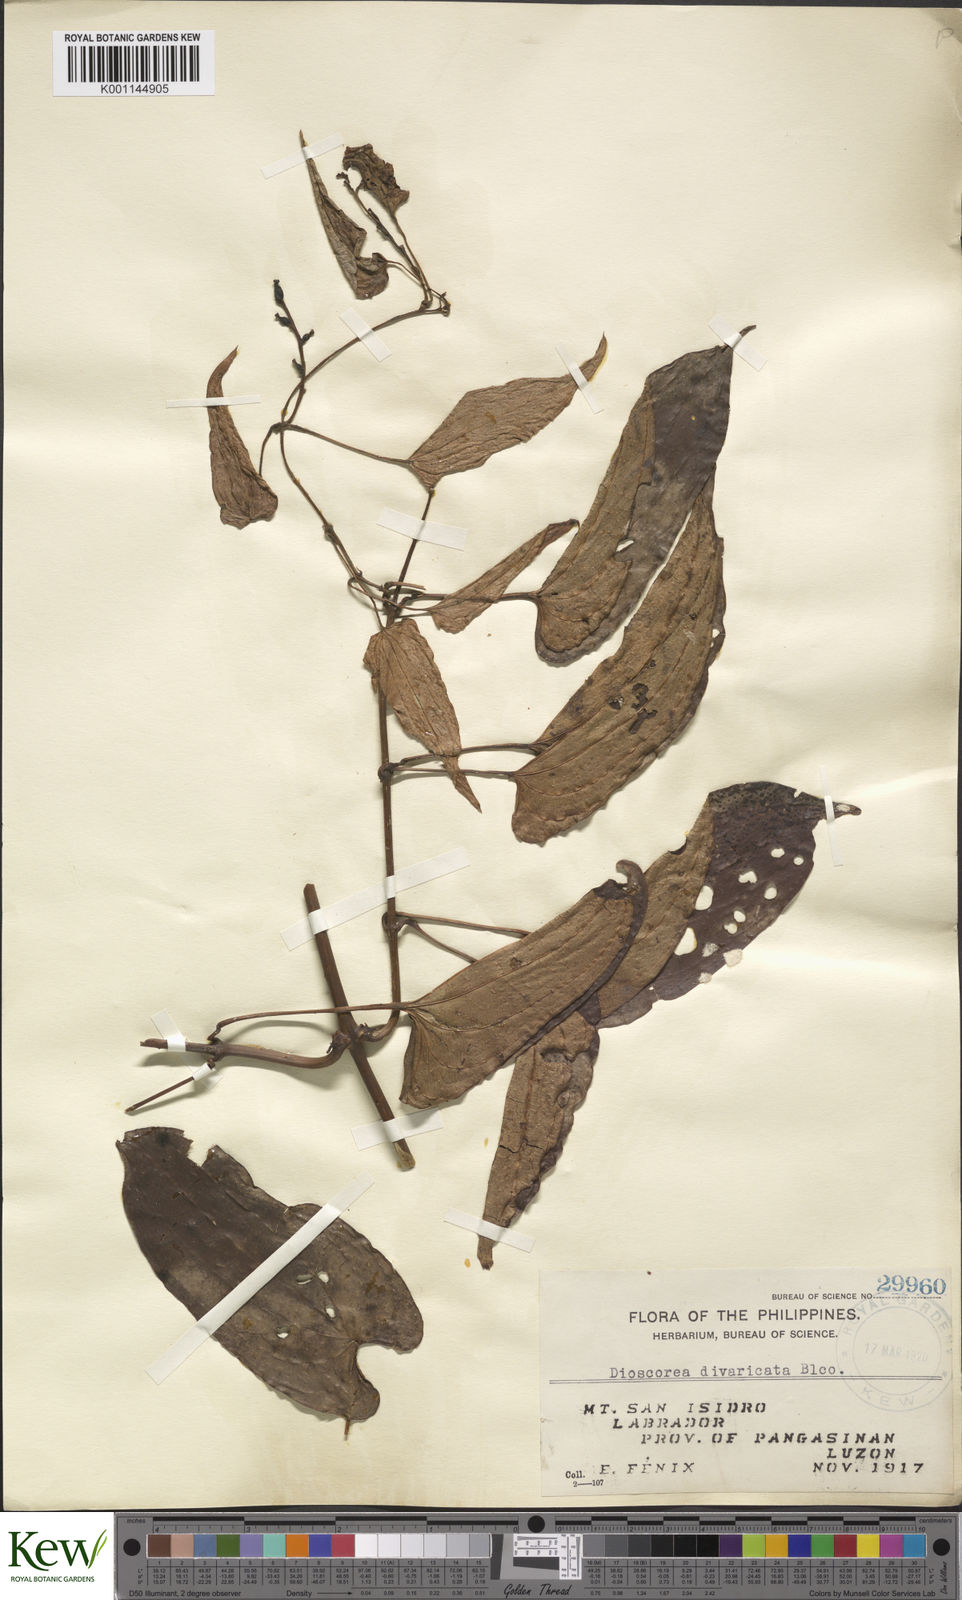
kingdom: Plantae
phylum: Tracheophyta
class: Liliopsida
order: Dioscoreales
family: Dioscoreaceae
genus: Dioscorea
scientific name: Dioscorea divaricata
